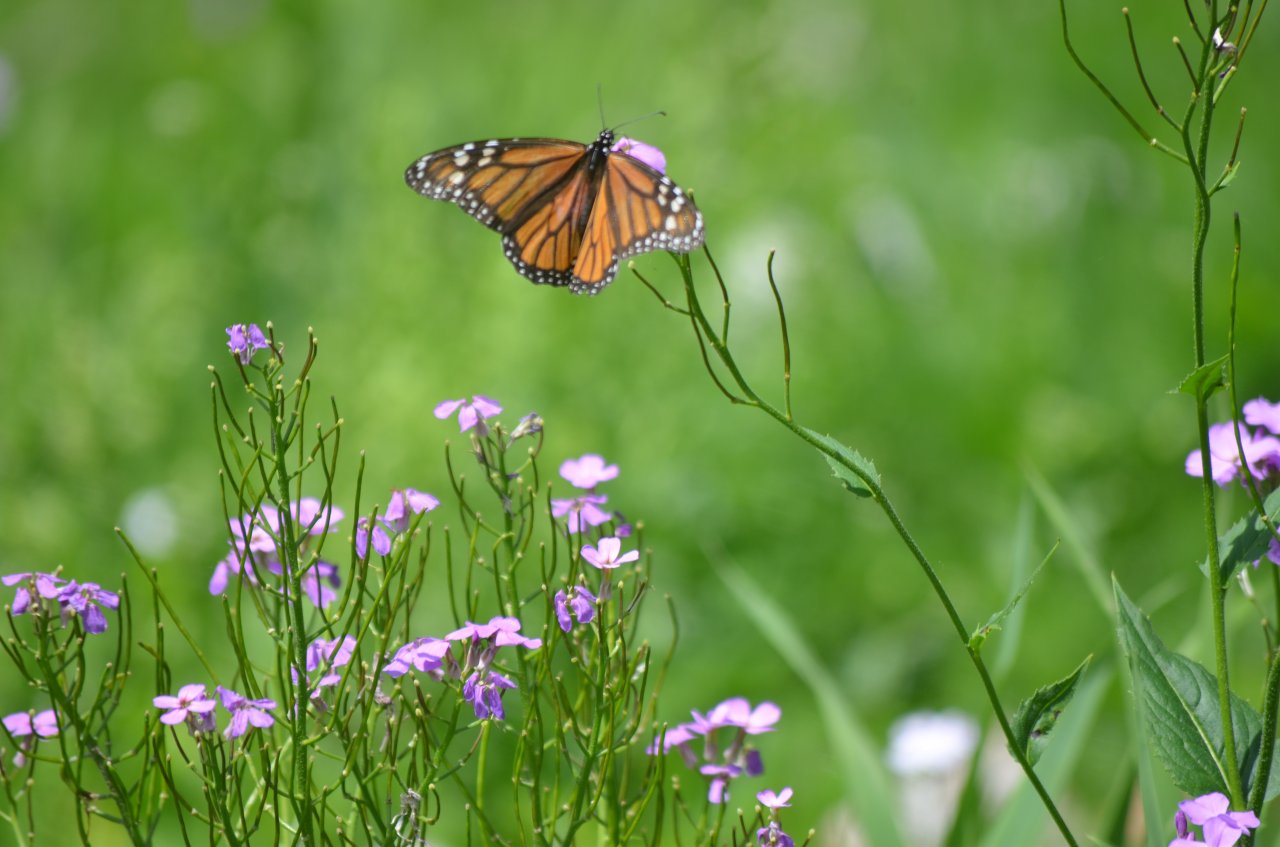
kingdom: Animalia
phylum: Arthropoda
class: Insecta
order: Lepidoptera
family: Nymphalidae
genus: Danaus
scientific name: Danaus plexippus
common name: Monarch
